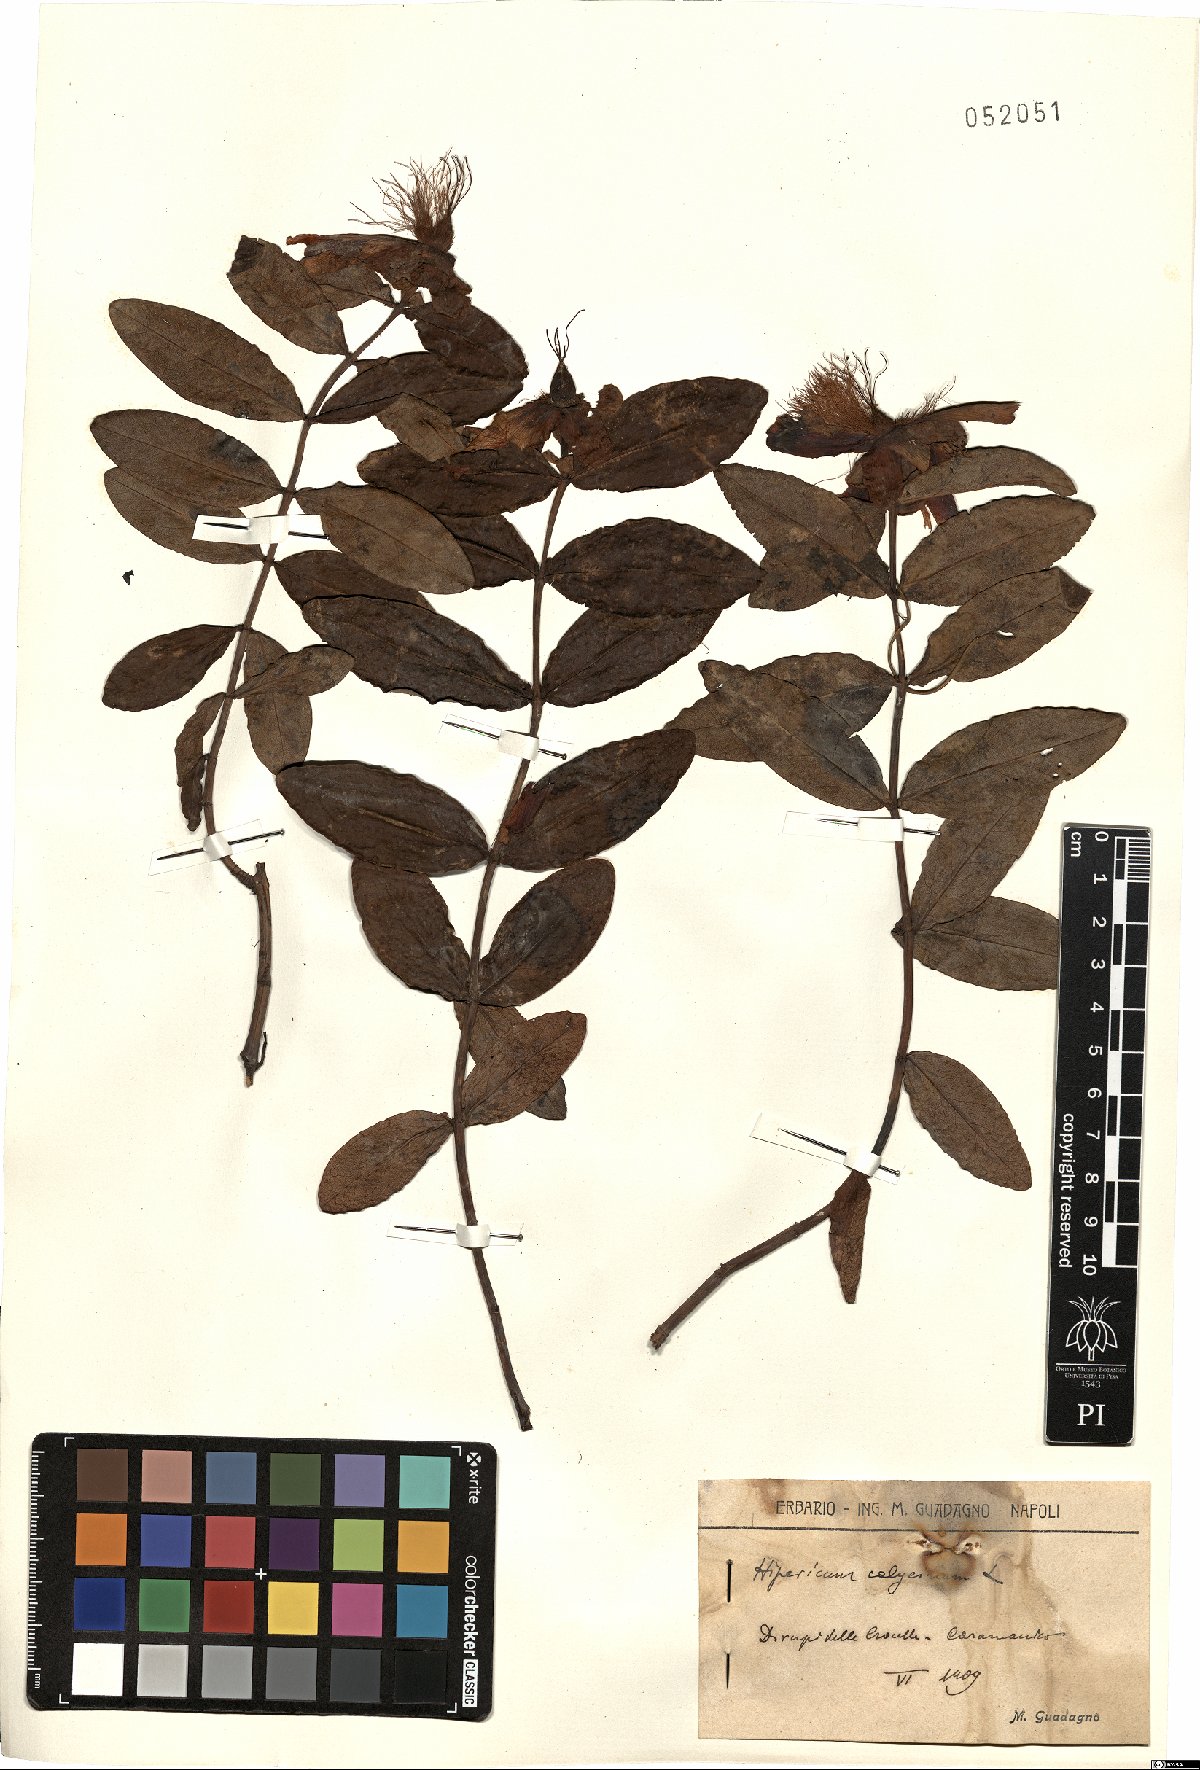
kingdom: Plantae
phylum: Tracheophyta
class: Magnoliopsida
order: Malpighiales
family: Hypericaceae
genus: Hypericum
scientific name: Hypericum calycinum
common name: Rose-of-sharon
